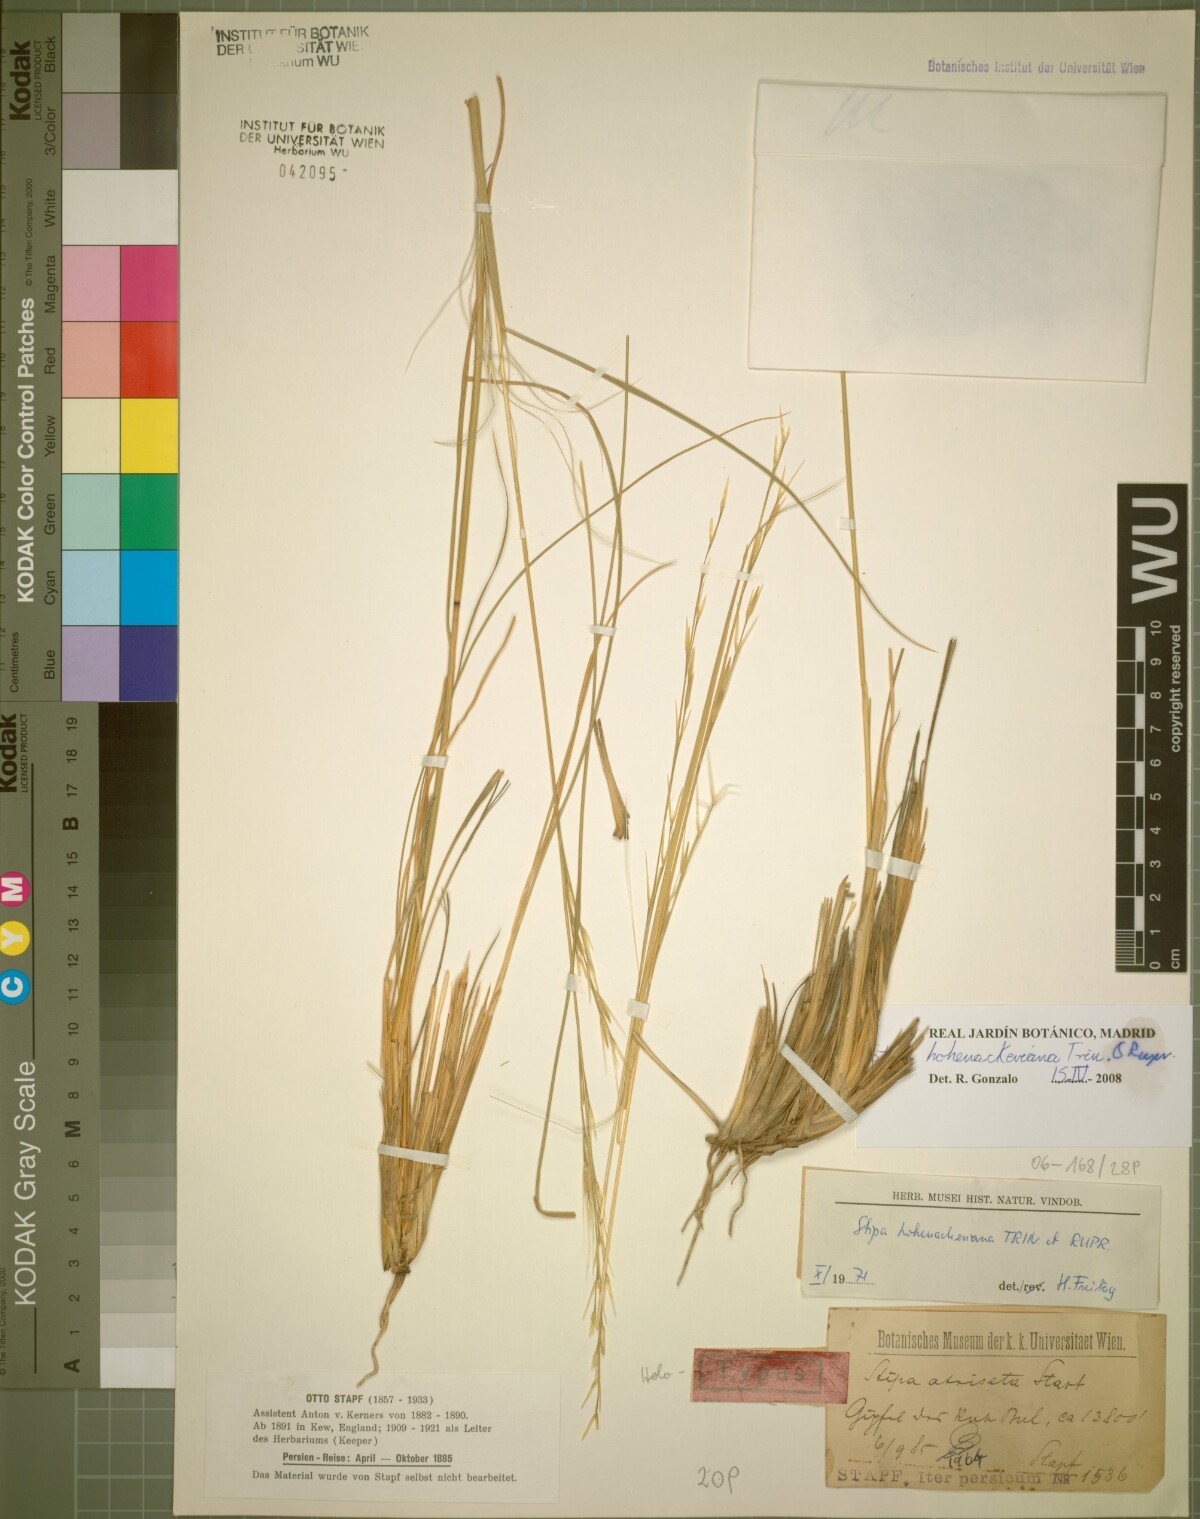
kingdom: Plantae
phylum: Tracheophyta
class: Liliopsida
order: Poales
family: Poaceae
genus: Stipa
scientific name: Stipa hohenackeriana
